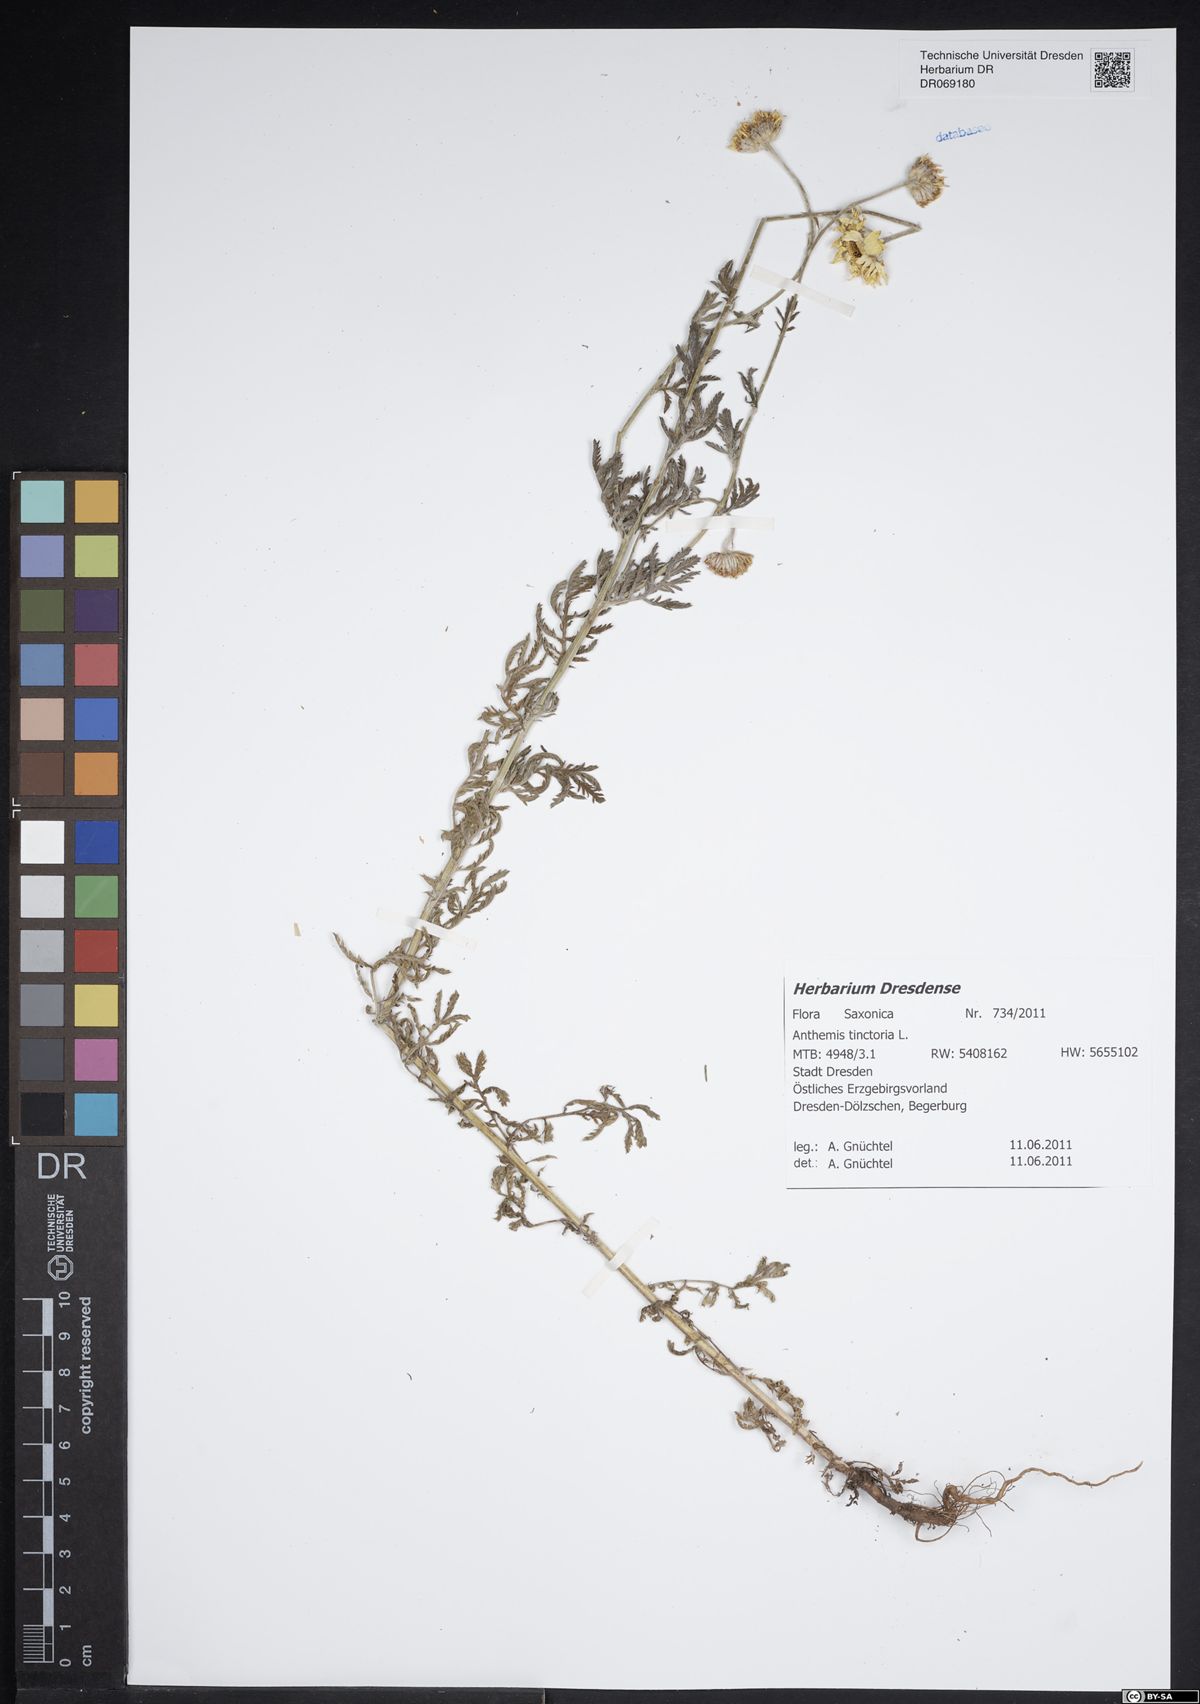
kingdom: Plantae
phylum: Tracheophyta
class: Magnoliopsida
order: Asterales
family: Asteraceae
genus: Cota
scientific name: Cota tinctoria
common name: Golden chamomile
